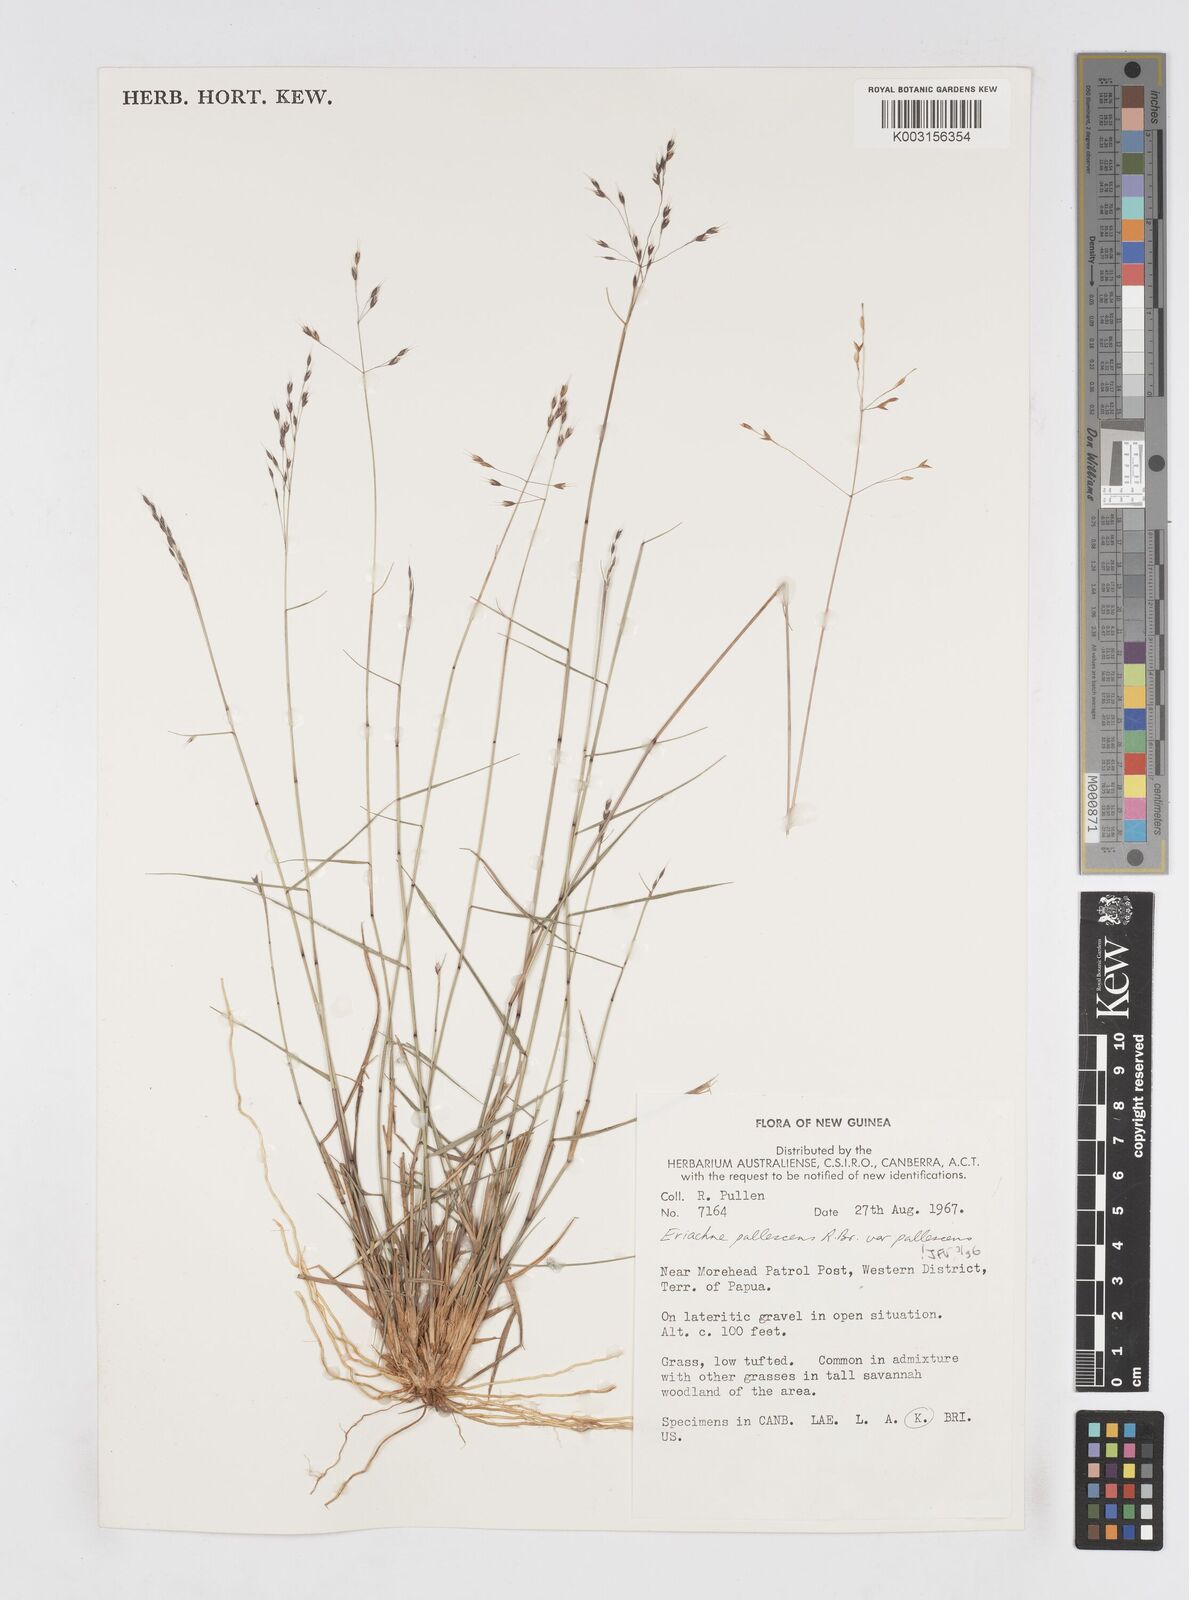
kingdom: Plantae
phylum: Tracheophyta
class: Liliopsida
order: Poales
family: Poaceae
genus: Eriachne
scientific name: Eriachne pallescens
